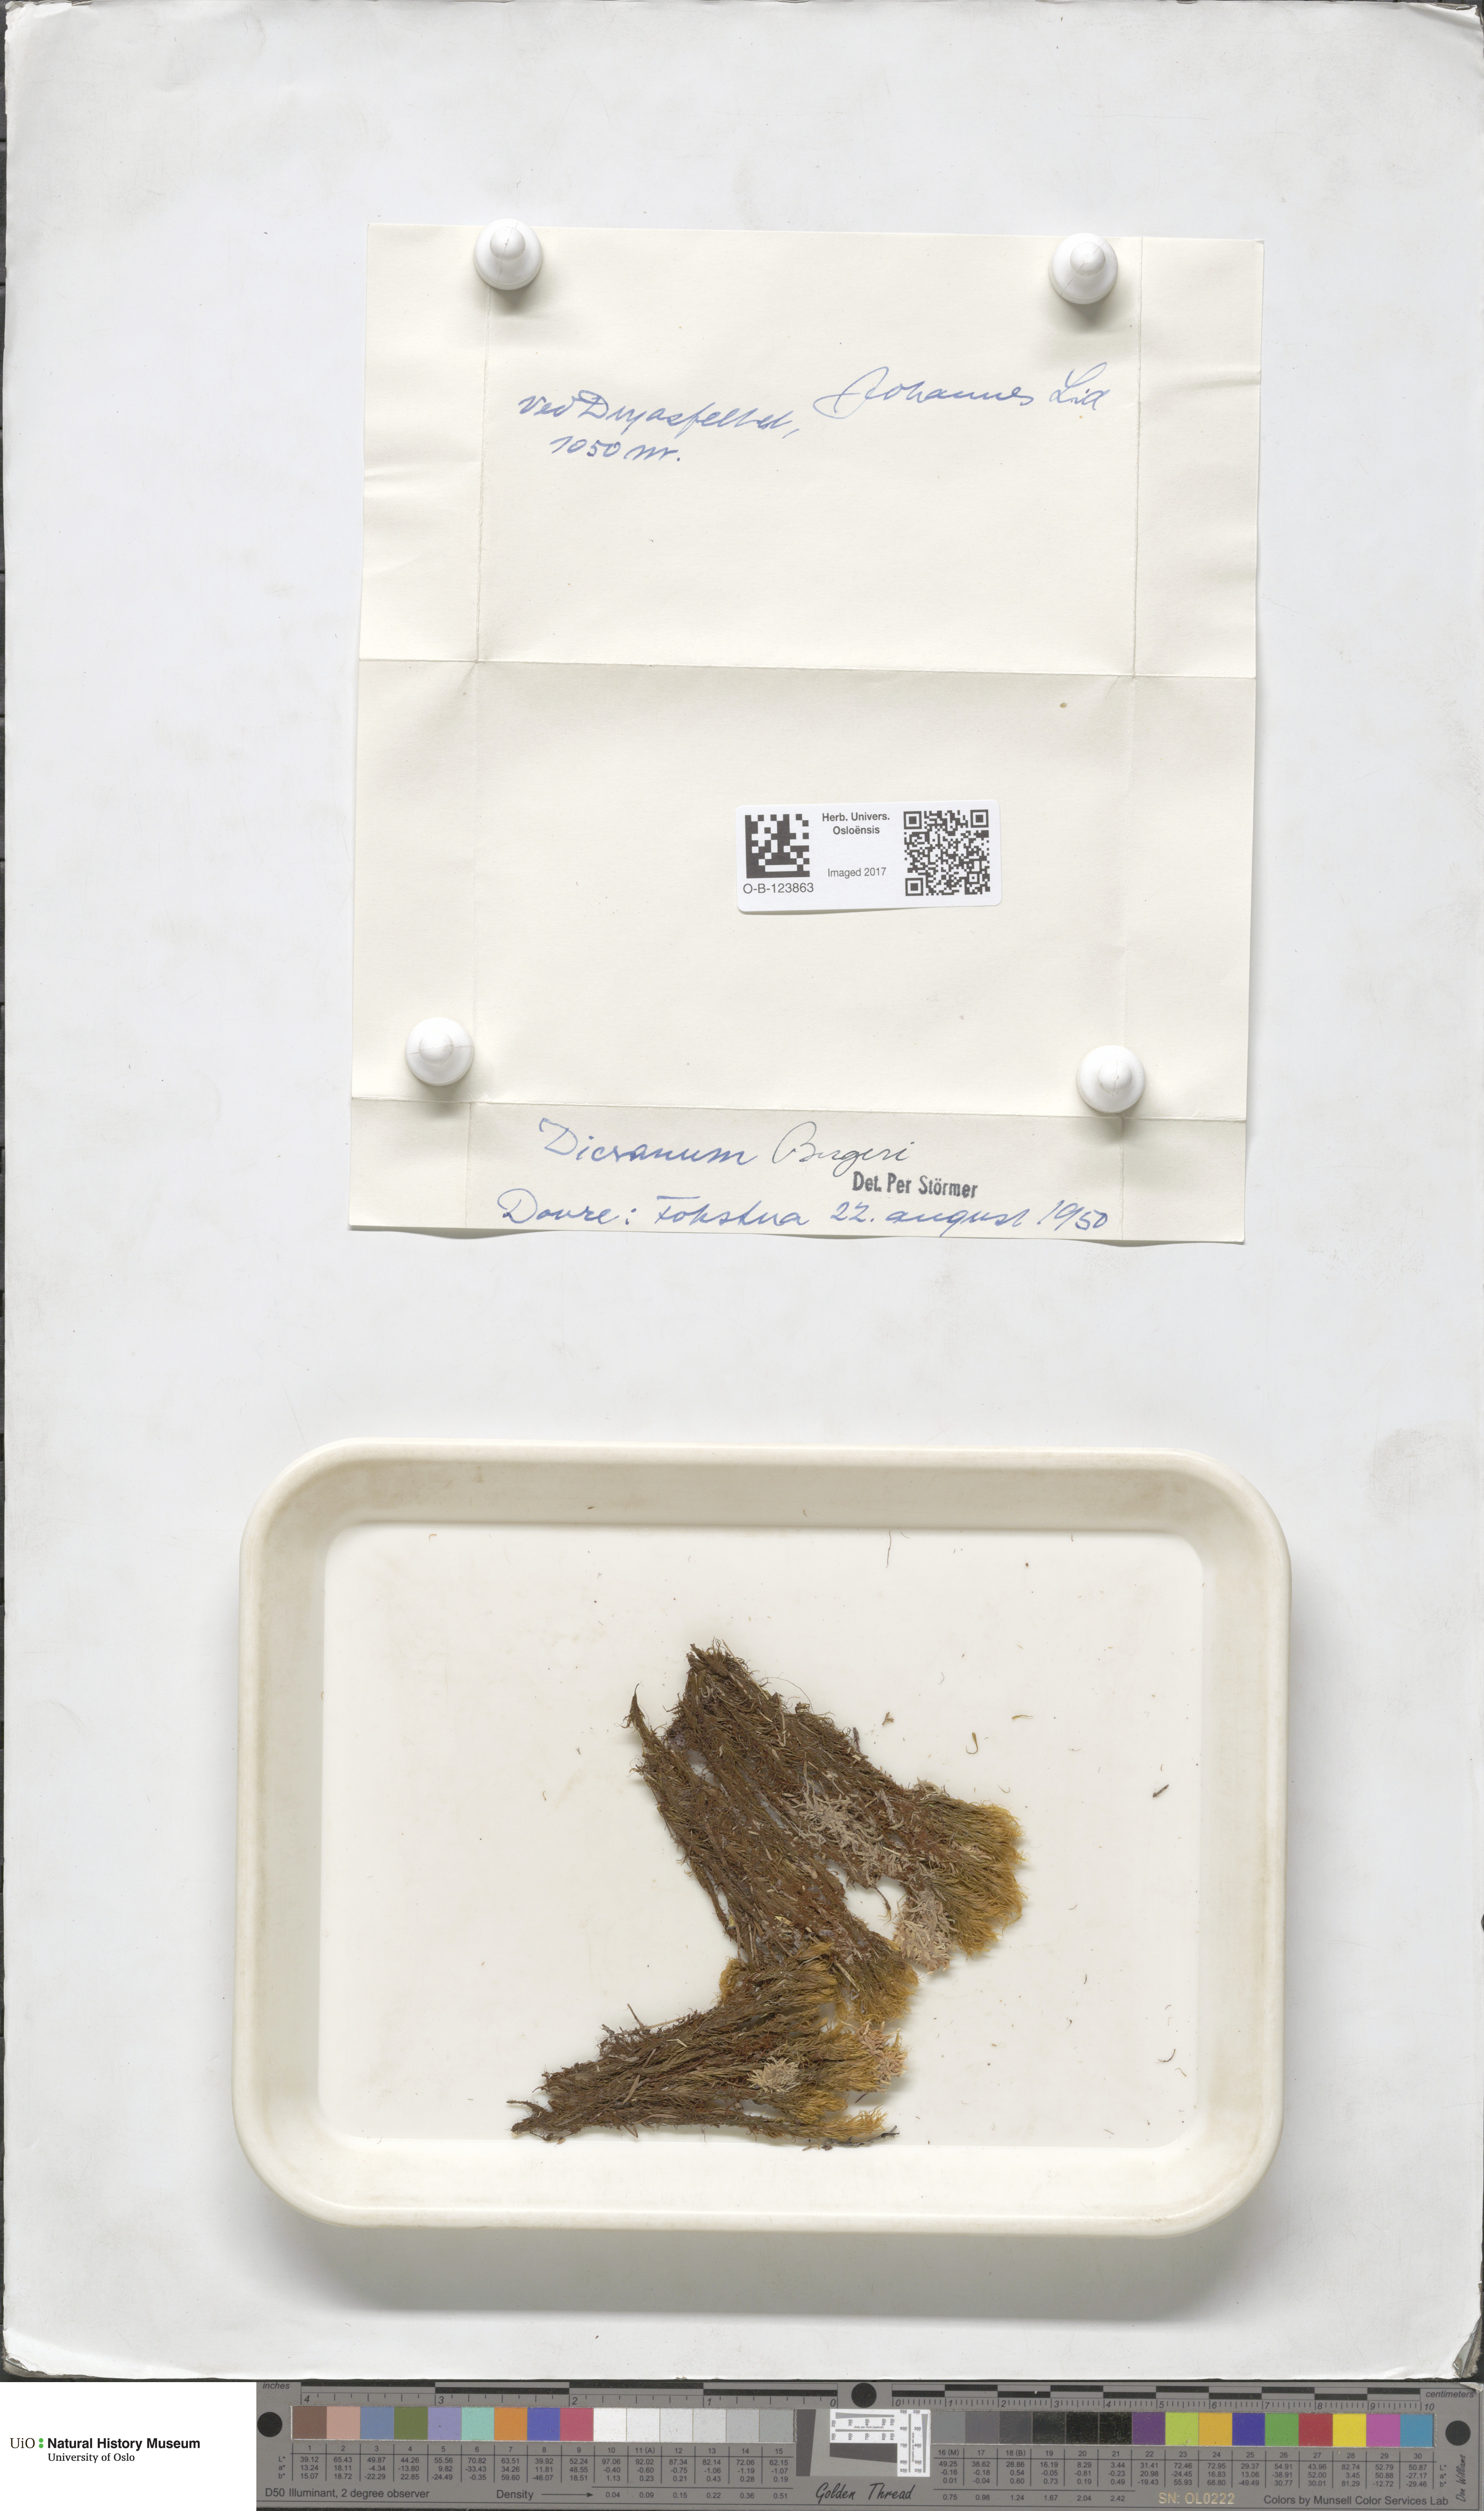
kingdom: Plantae
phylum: Bryophyta
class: Bryopsida
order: Dicranales
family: Dicranaceae
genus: Dicranum
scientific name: Dicranum undulatum
